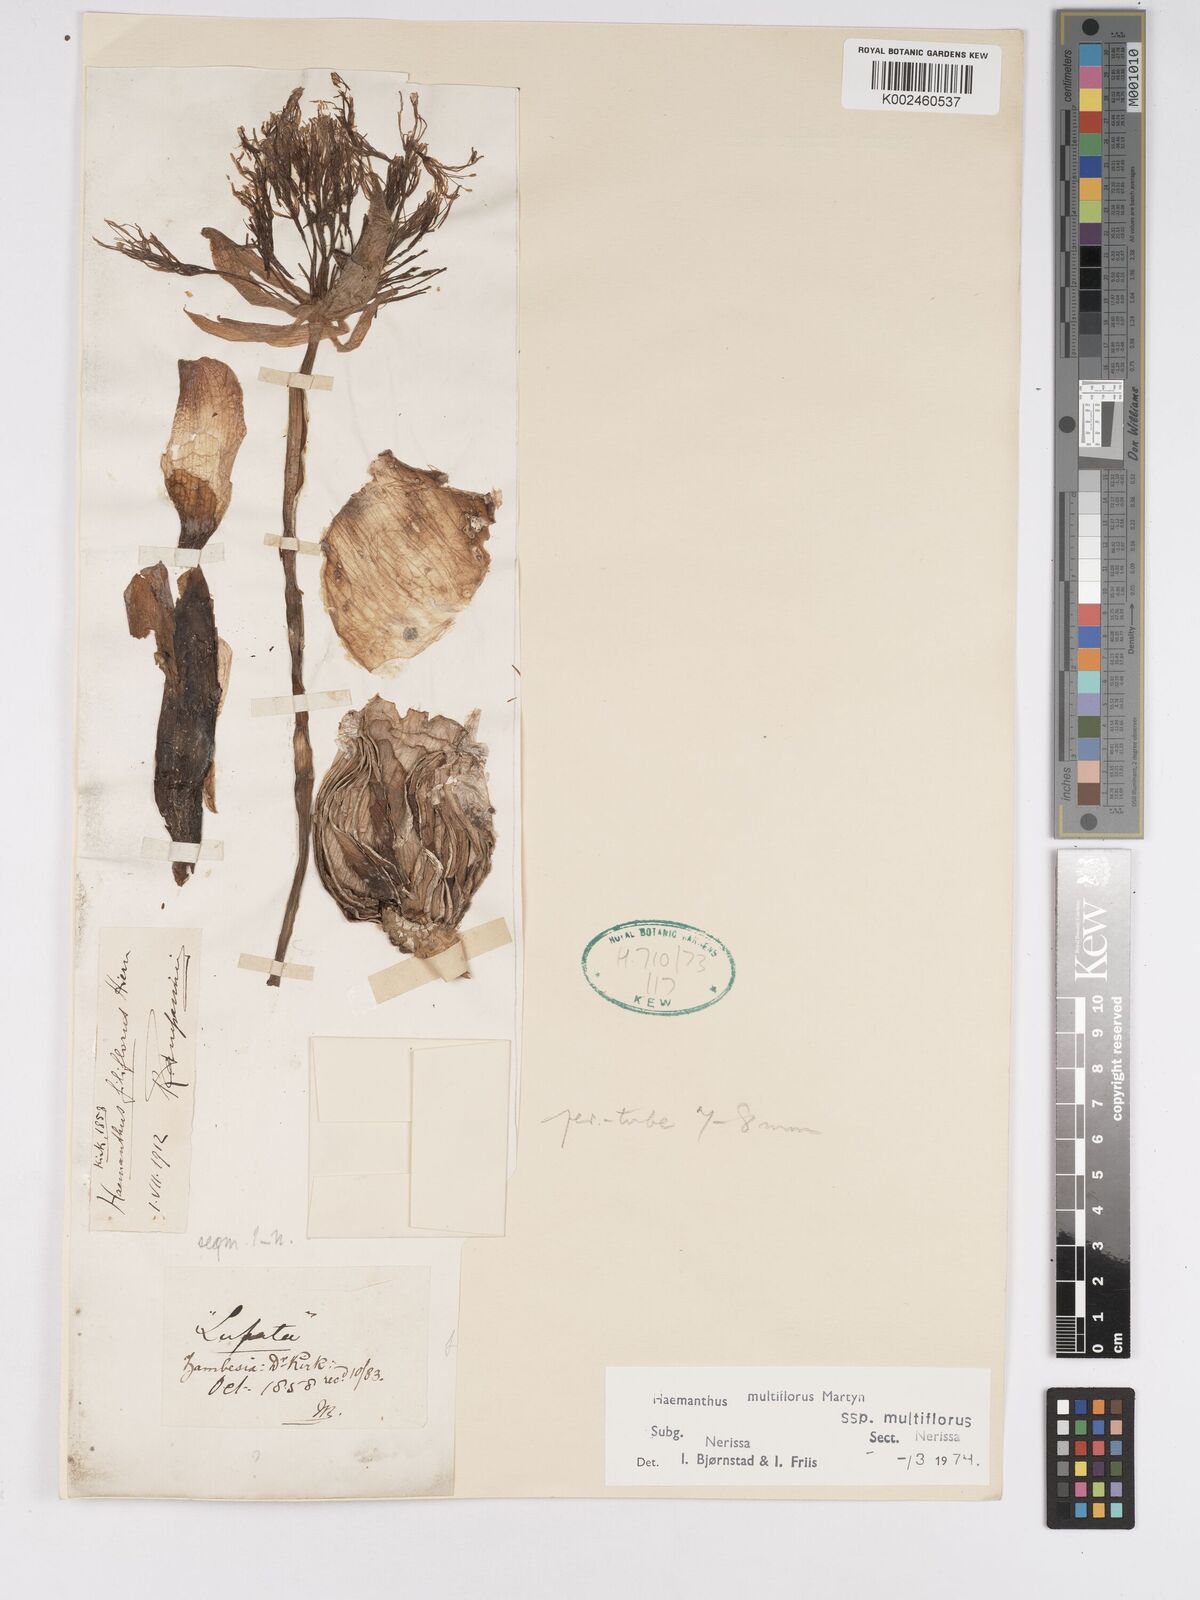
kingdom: Plantae
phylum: Tracheophyta
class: Liliopsida
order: Asparagales
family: Amaryllidaceae
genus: Scadoxus
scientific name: Scadoxus multiflorus
